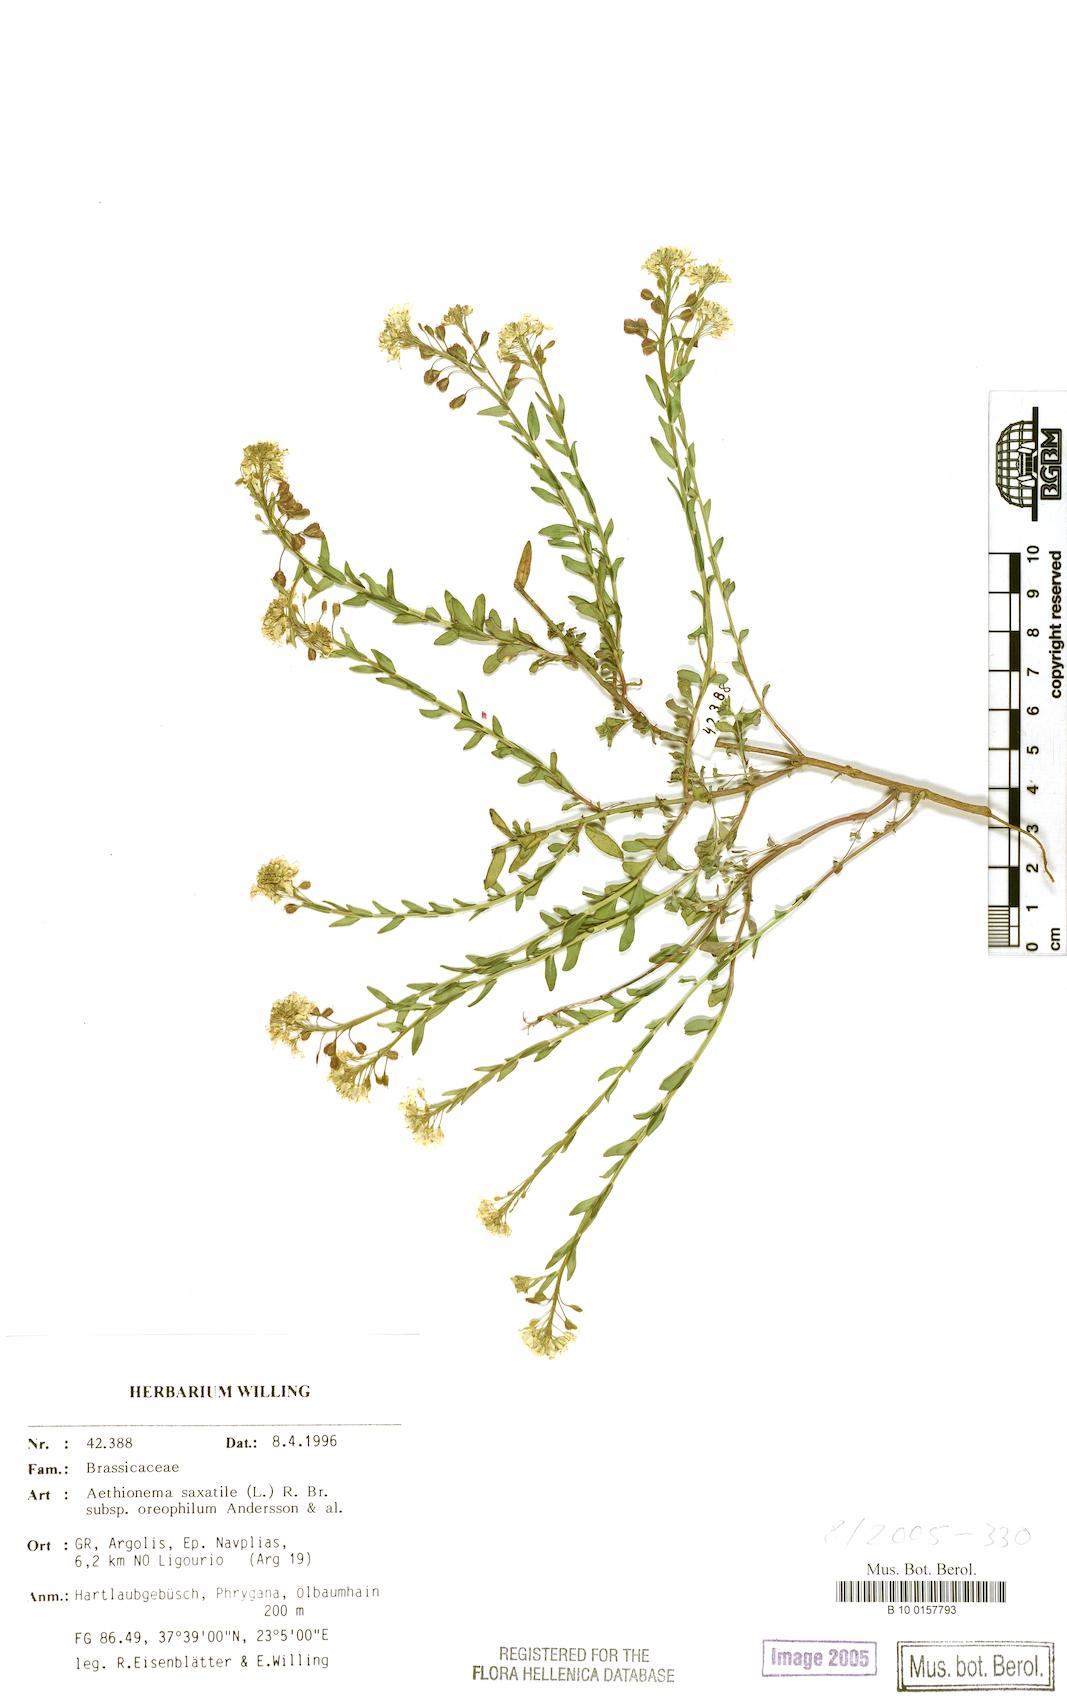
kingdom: Plantae
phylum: Tracheophyta
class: Magnoliopsida
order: Brassicales
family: Brassicaceae
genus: Aethionema
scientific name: Aethionema saxatile
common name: Burnt candytuft
